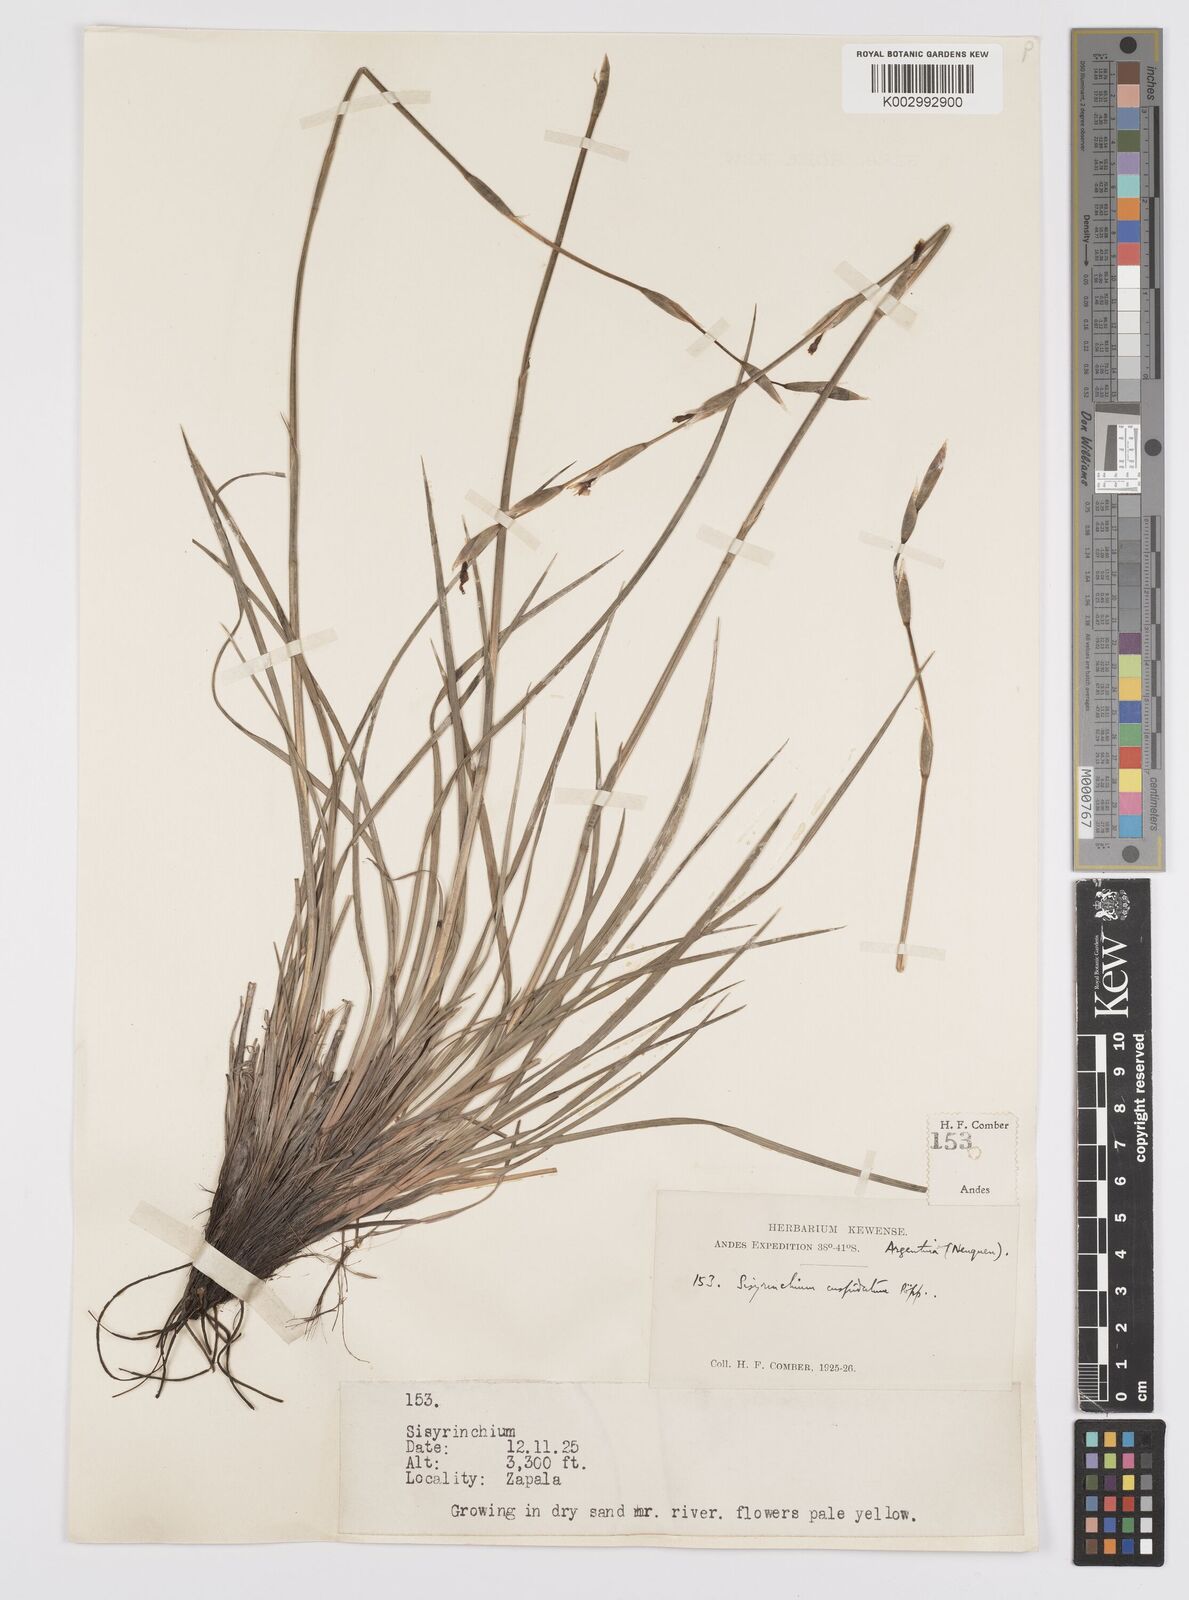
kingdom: Plantae
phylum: Tracheophyta
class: Liliopsida
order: Asparagales
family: Iridaceae
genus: Sisyrinchium
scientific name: Sisyrinchium cuspidatum
